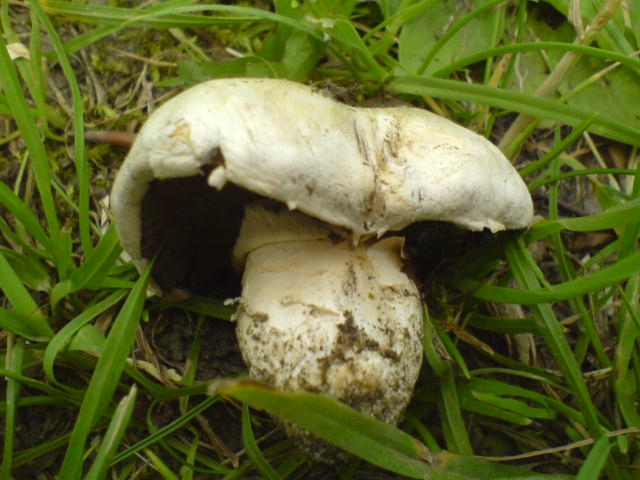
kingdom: Fungi
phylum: Basidiomycota
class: Agaricomycetes
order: Agaricales
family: Agaricaceae
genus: Agaricus
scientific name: Agaricus bitorquis
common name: vej-champignon
